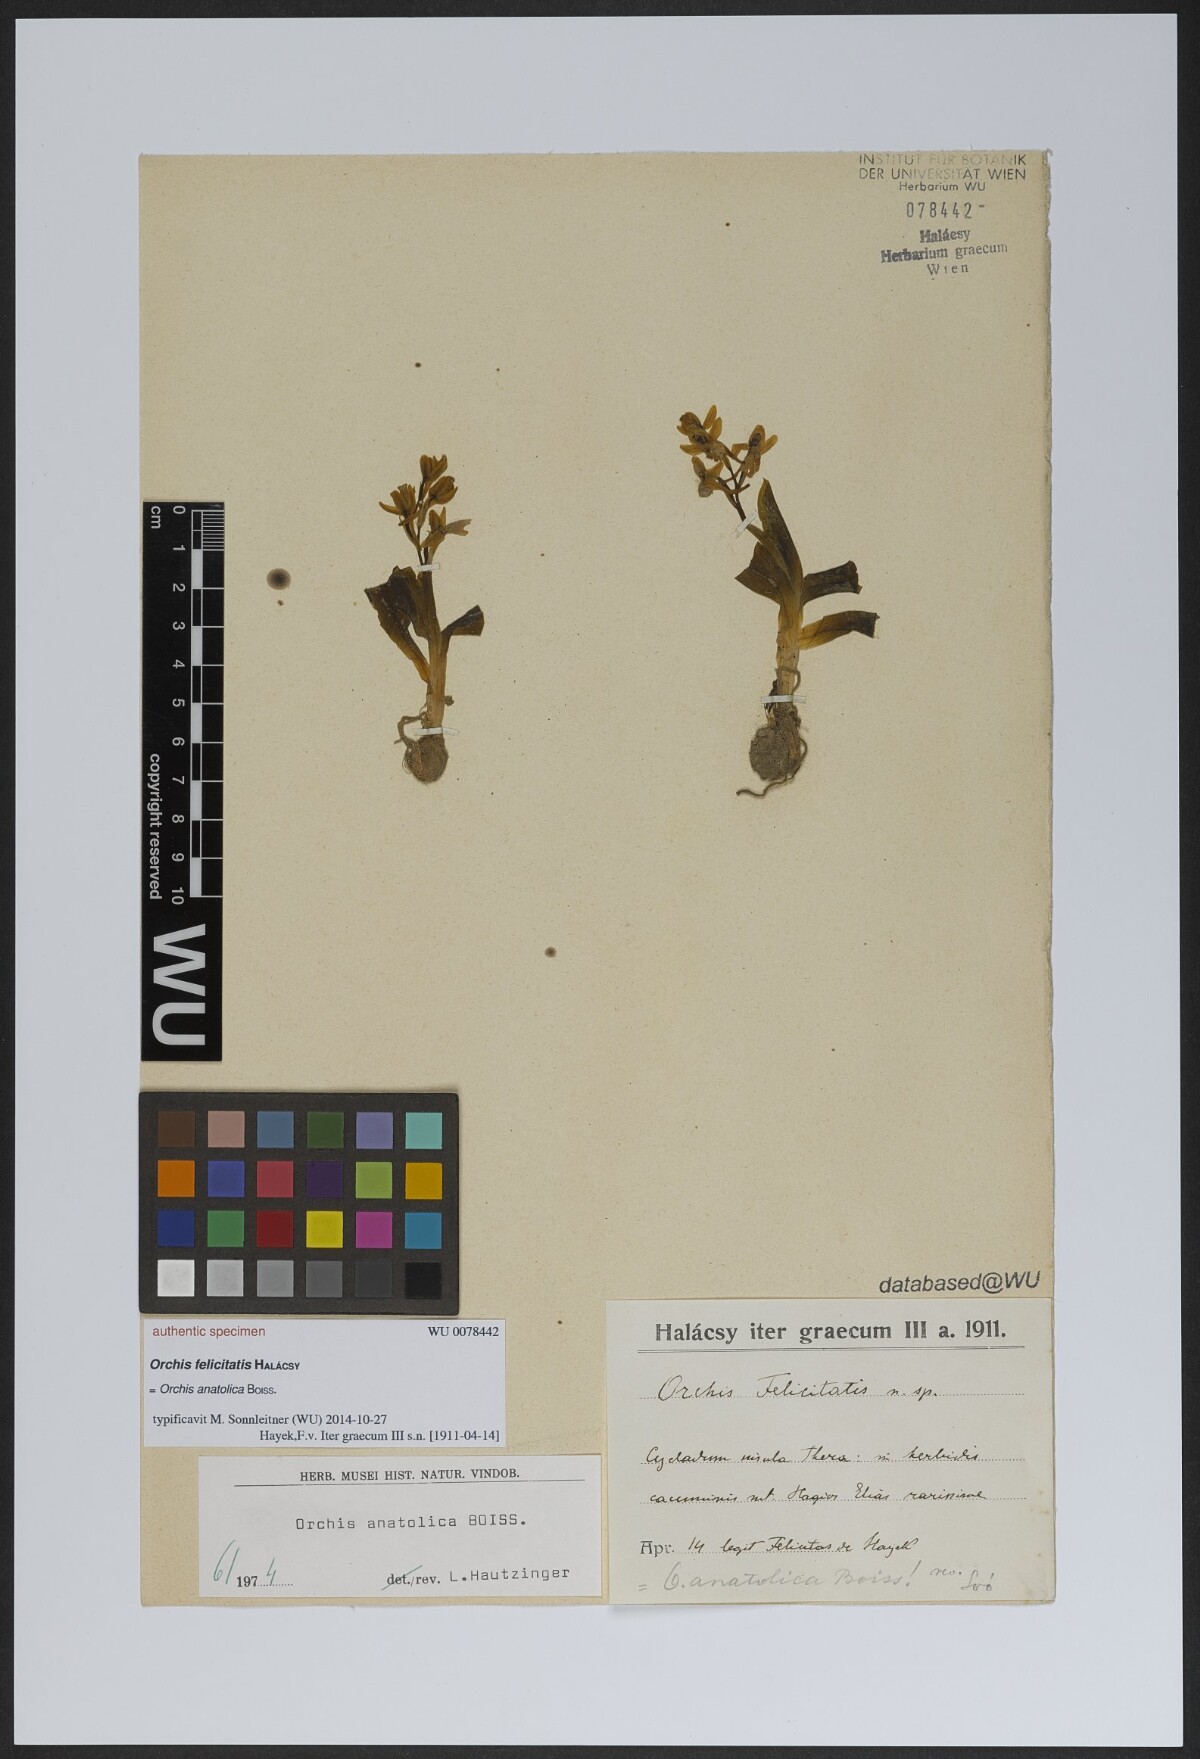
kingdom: Plantae
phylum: Tracheophyta
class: Liliopsida
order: Asparagales
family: Orchidaceae
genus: Orchis
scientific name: Orchis
